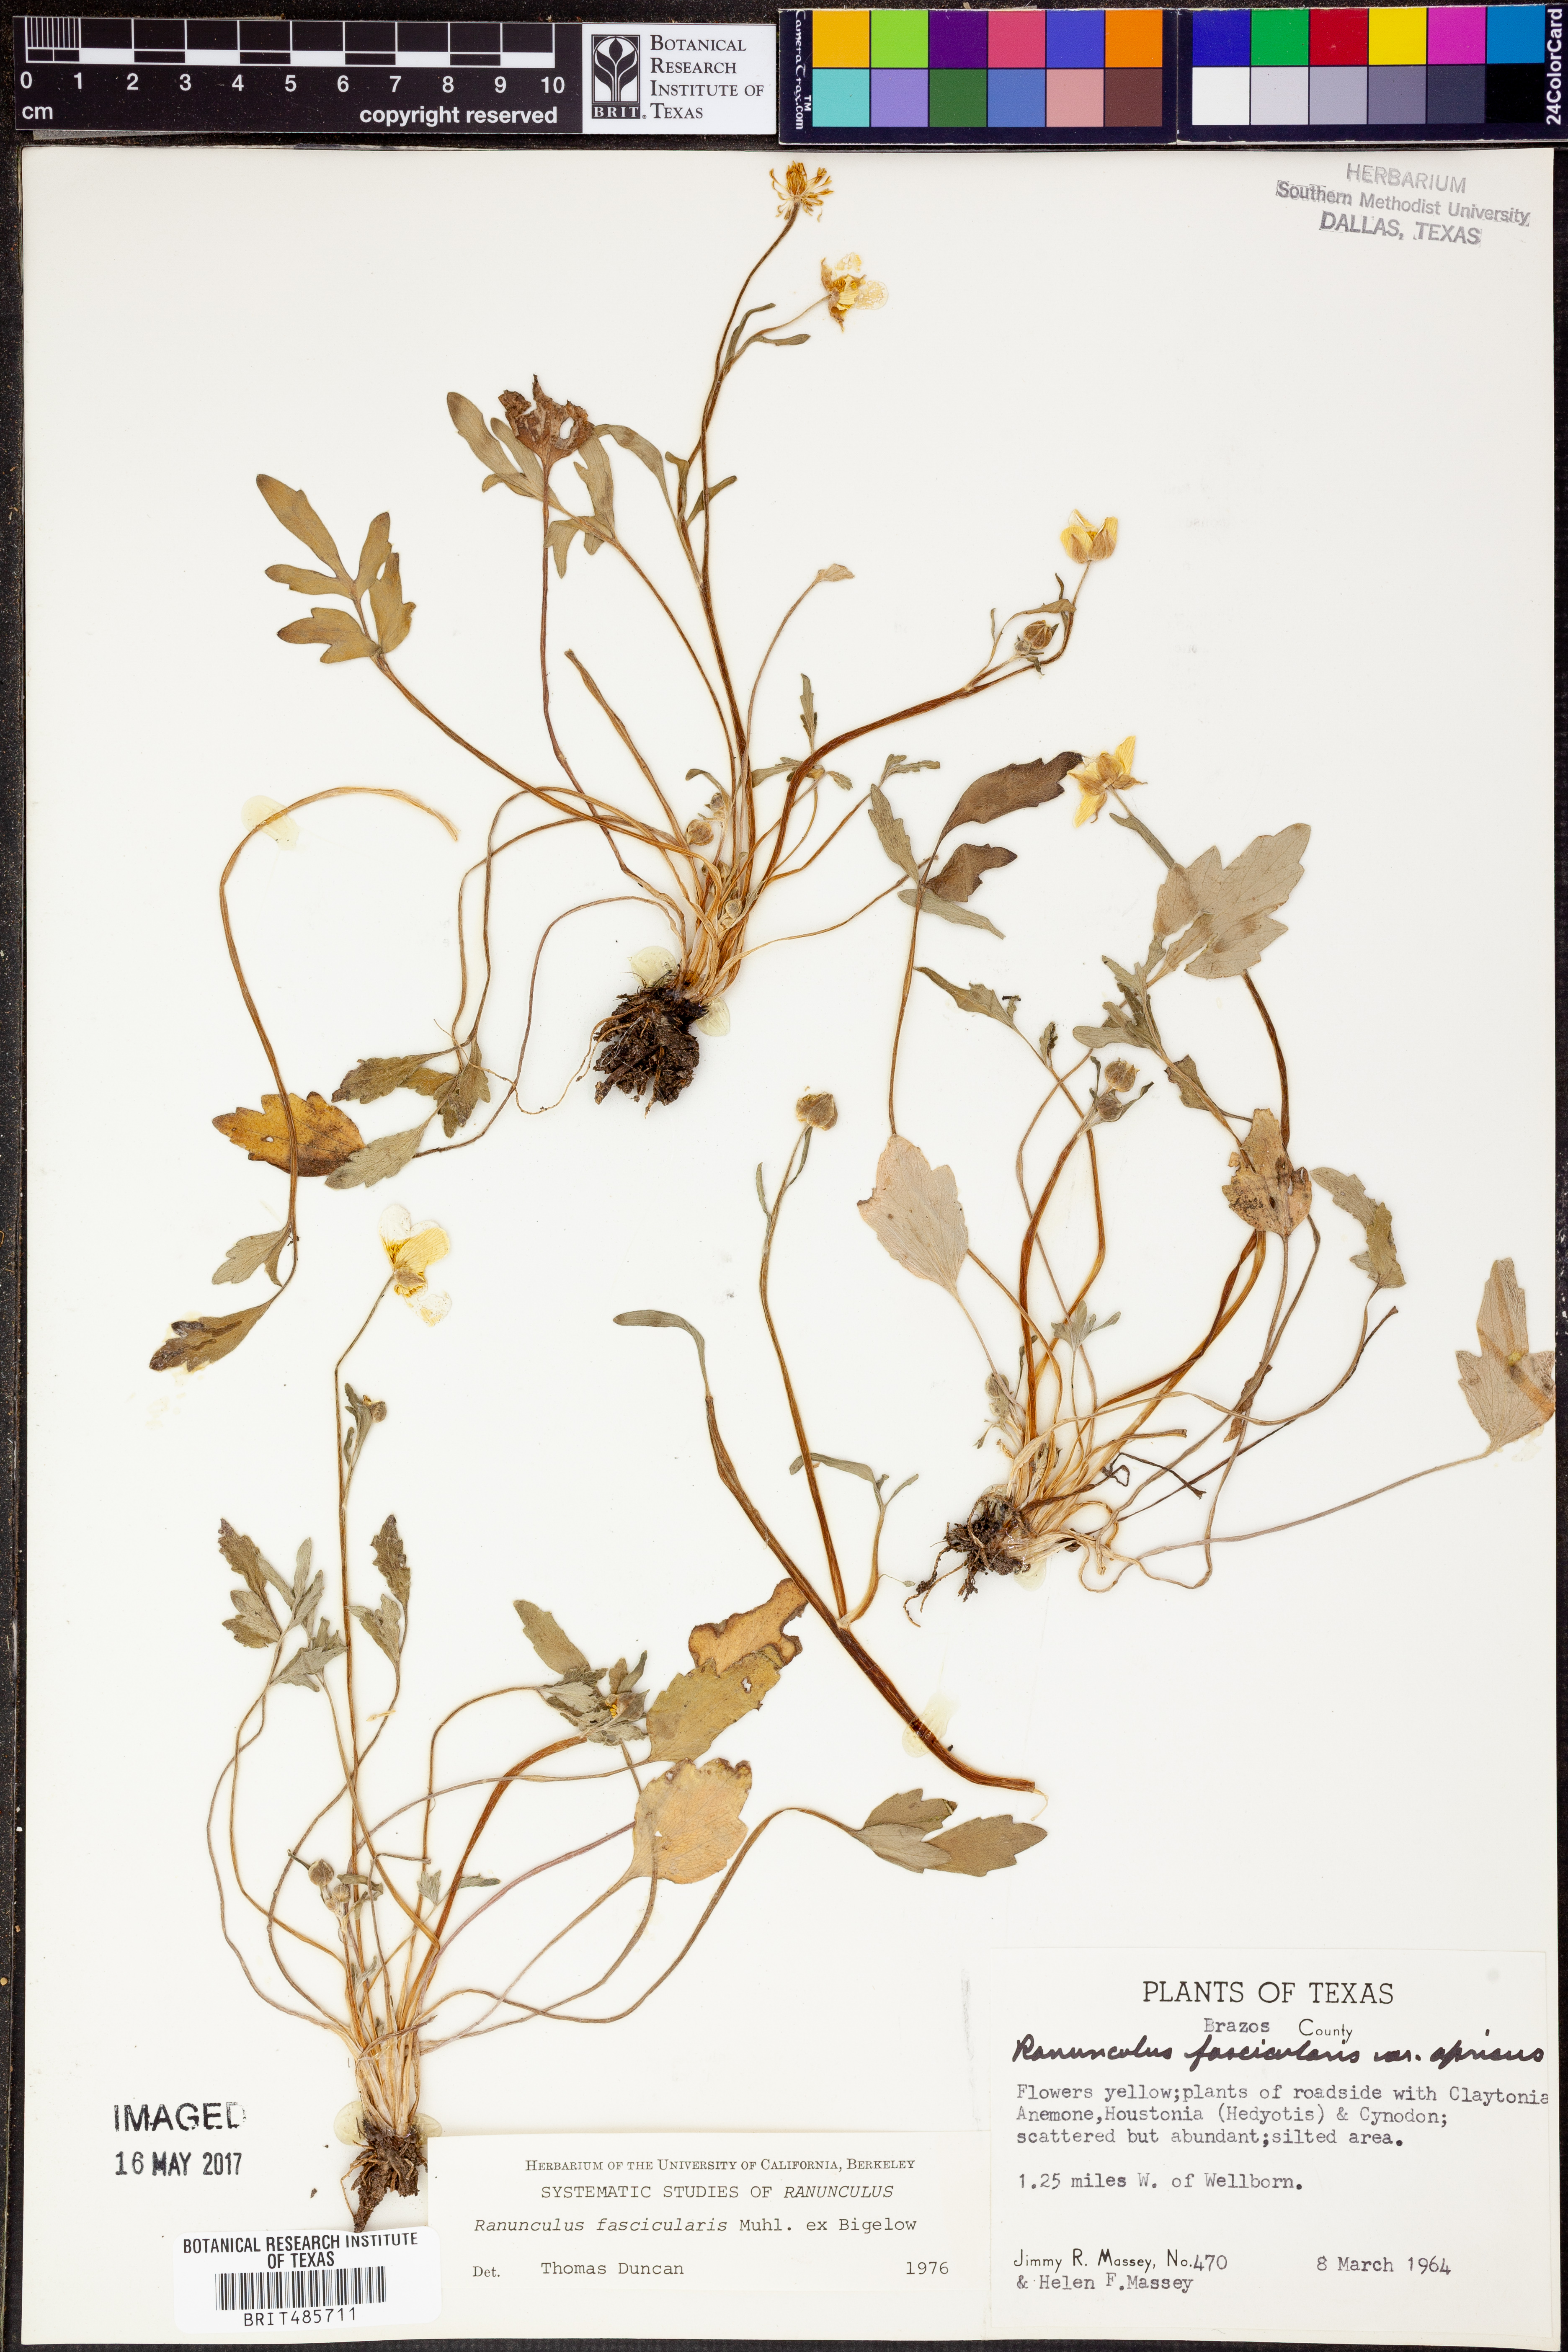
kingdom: Plantae
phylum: Tracheophyta
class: Magnoliopsida
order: Ranunculales
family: Ranunculaceae
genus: Ranunculus
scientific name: Ranunculus fascicularis
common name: Early buttercup
